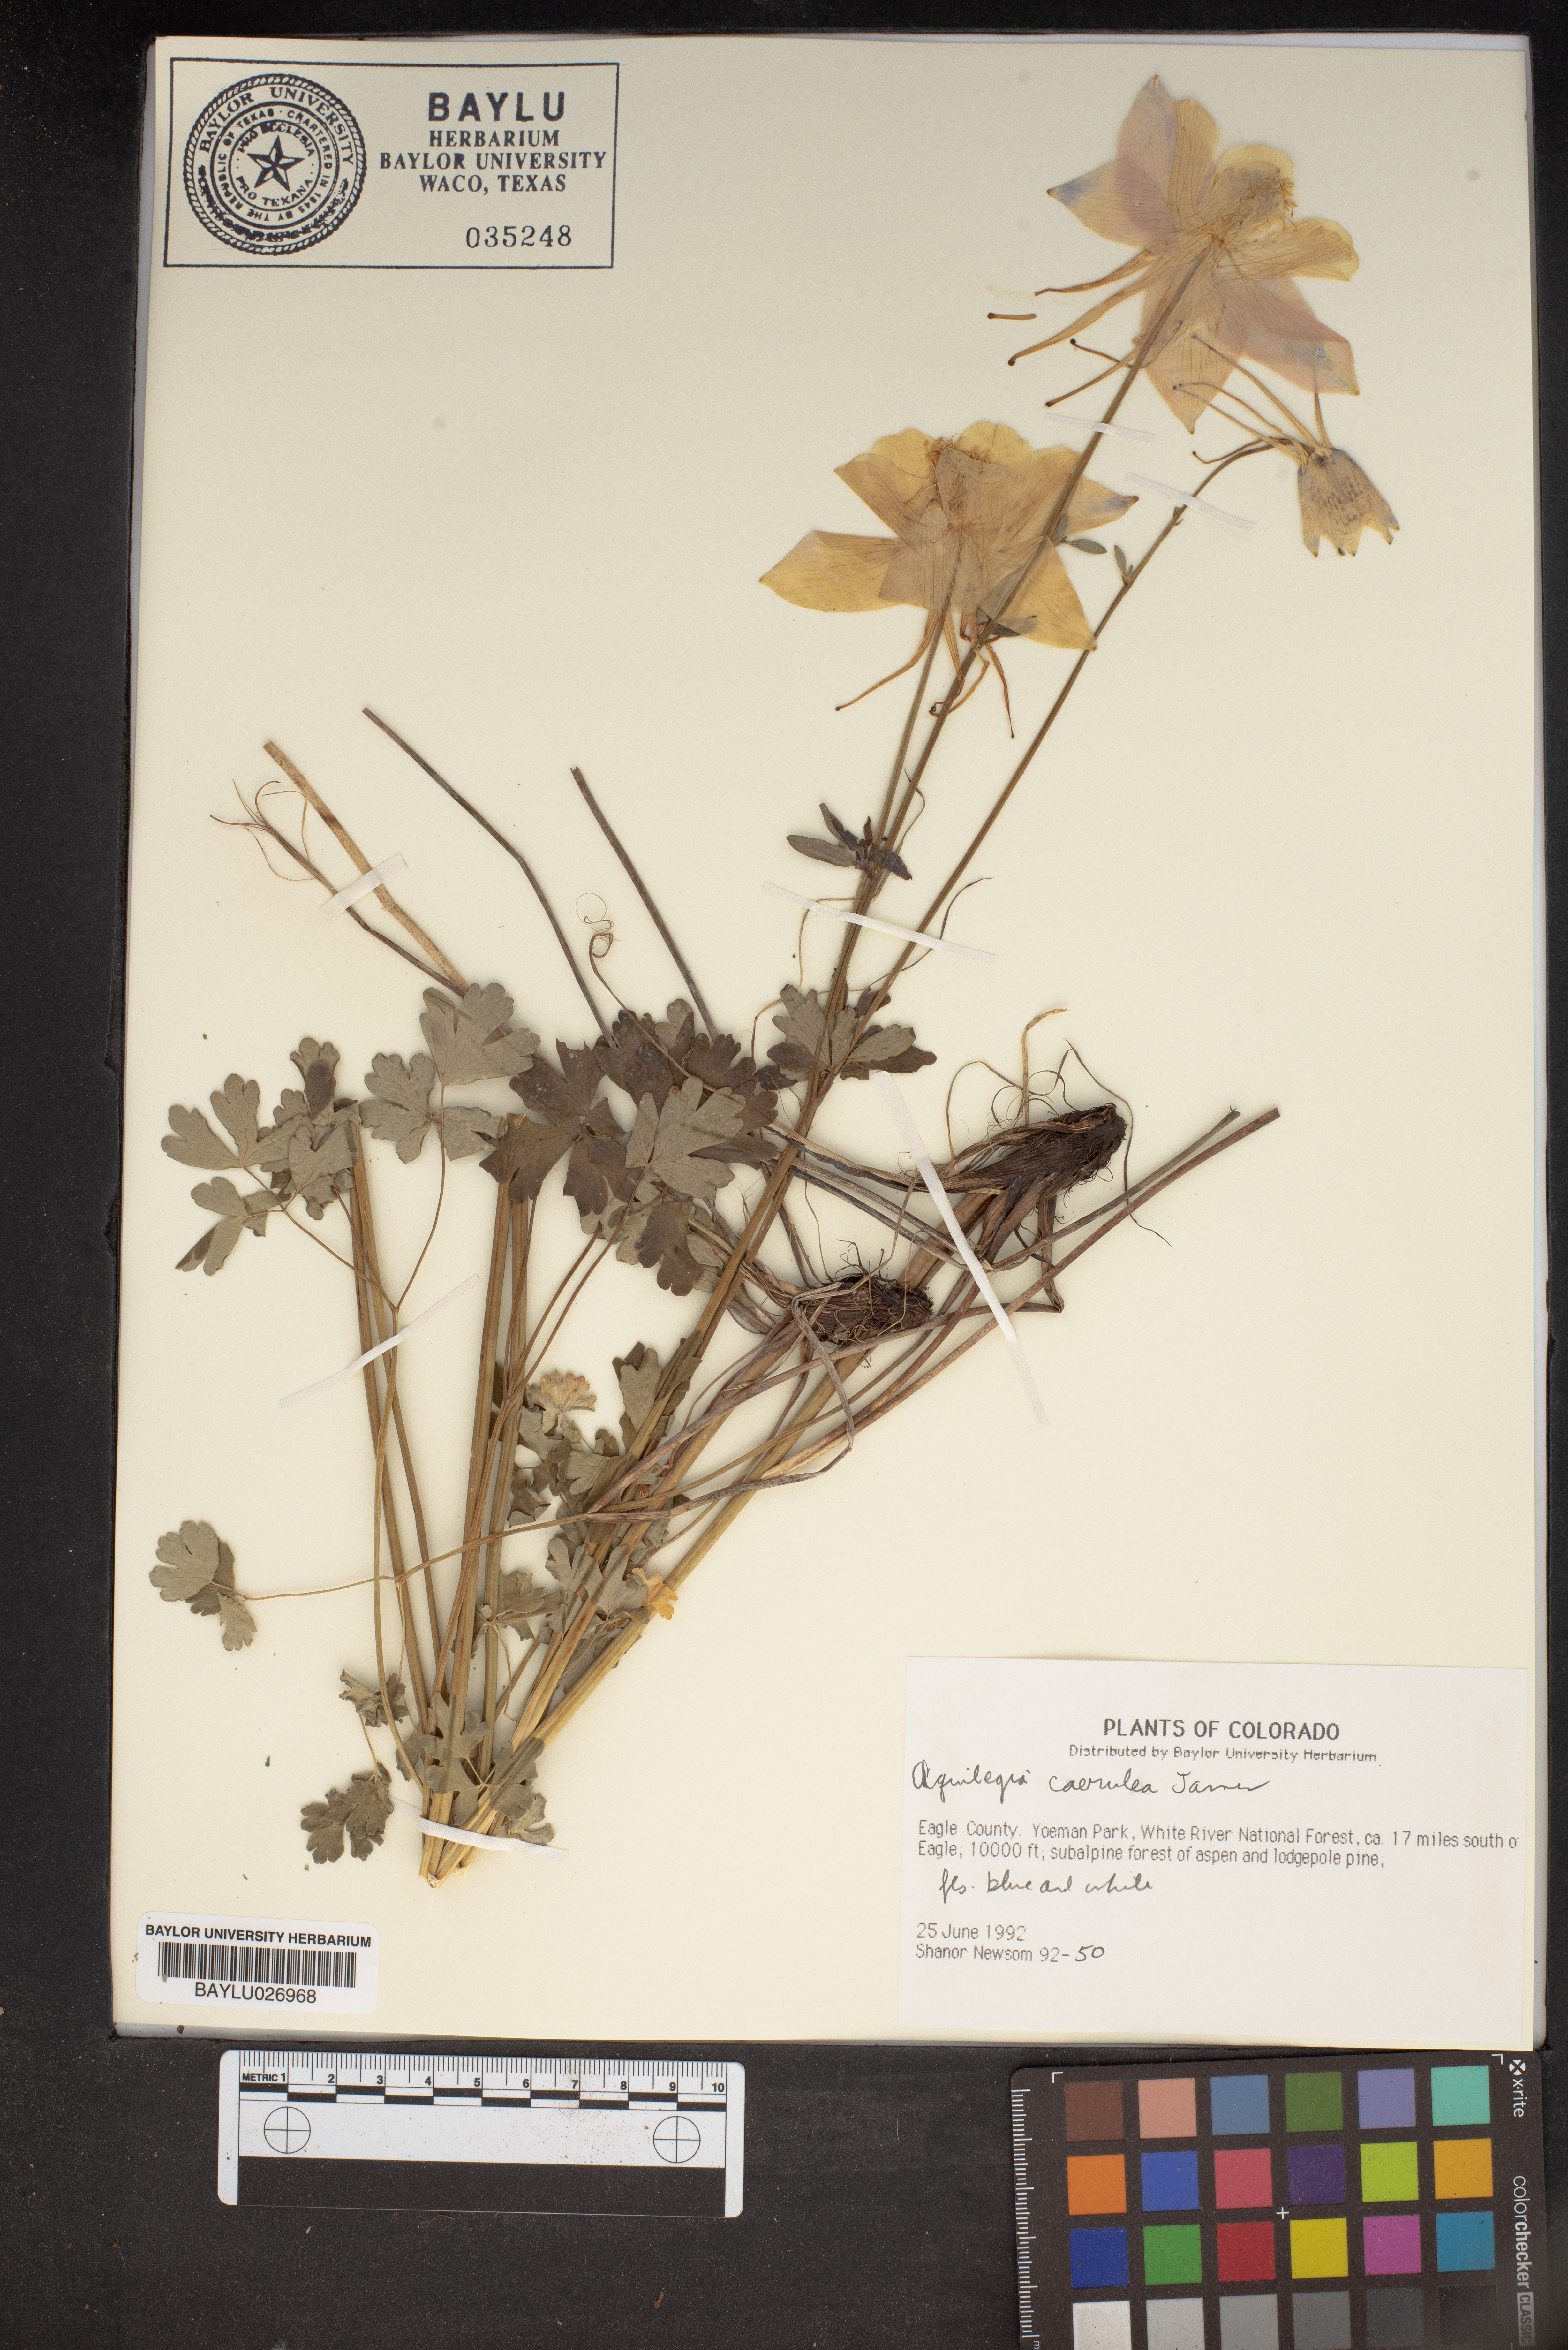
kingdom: Plantae
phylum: Tracheophyta
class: Magnoliopsida
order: Ranunculales
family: Ranunculaceae
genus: Aquilegia
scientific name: Aquilegia coerulea
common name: Rocky mountain columbine
